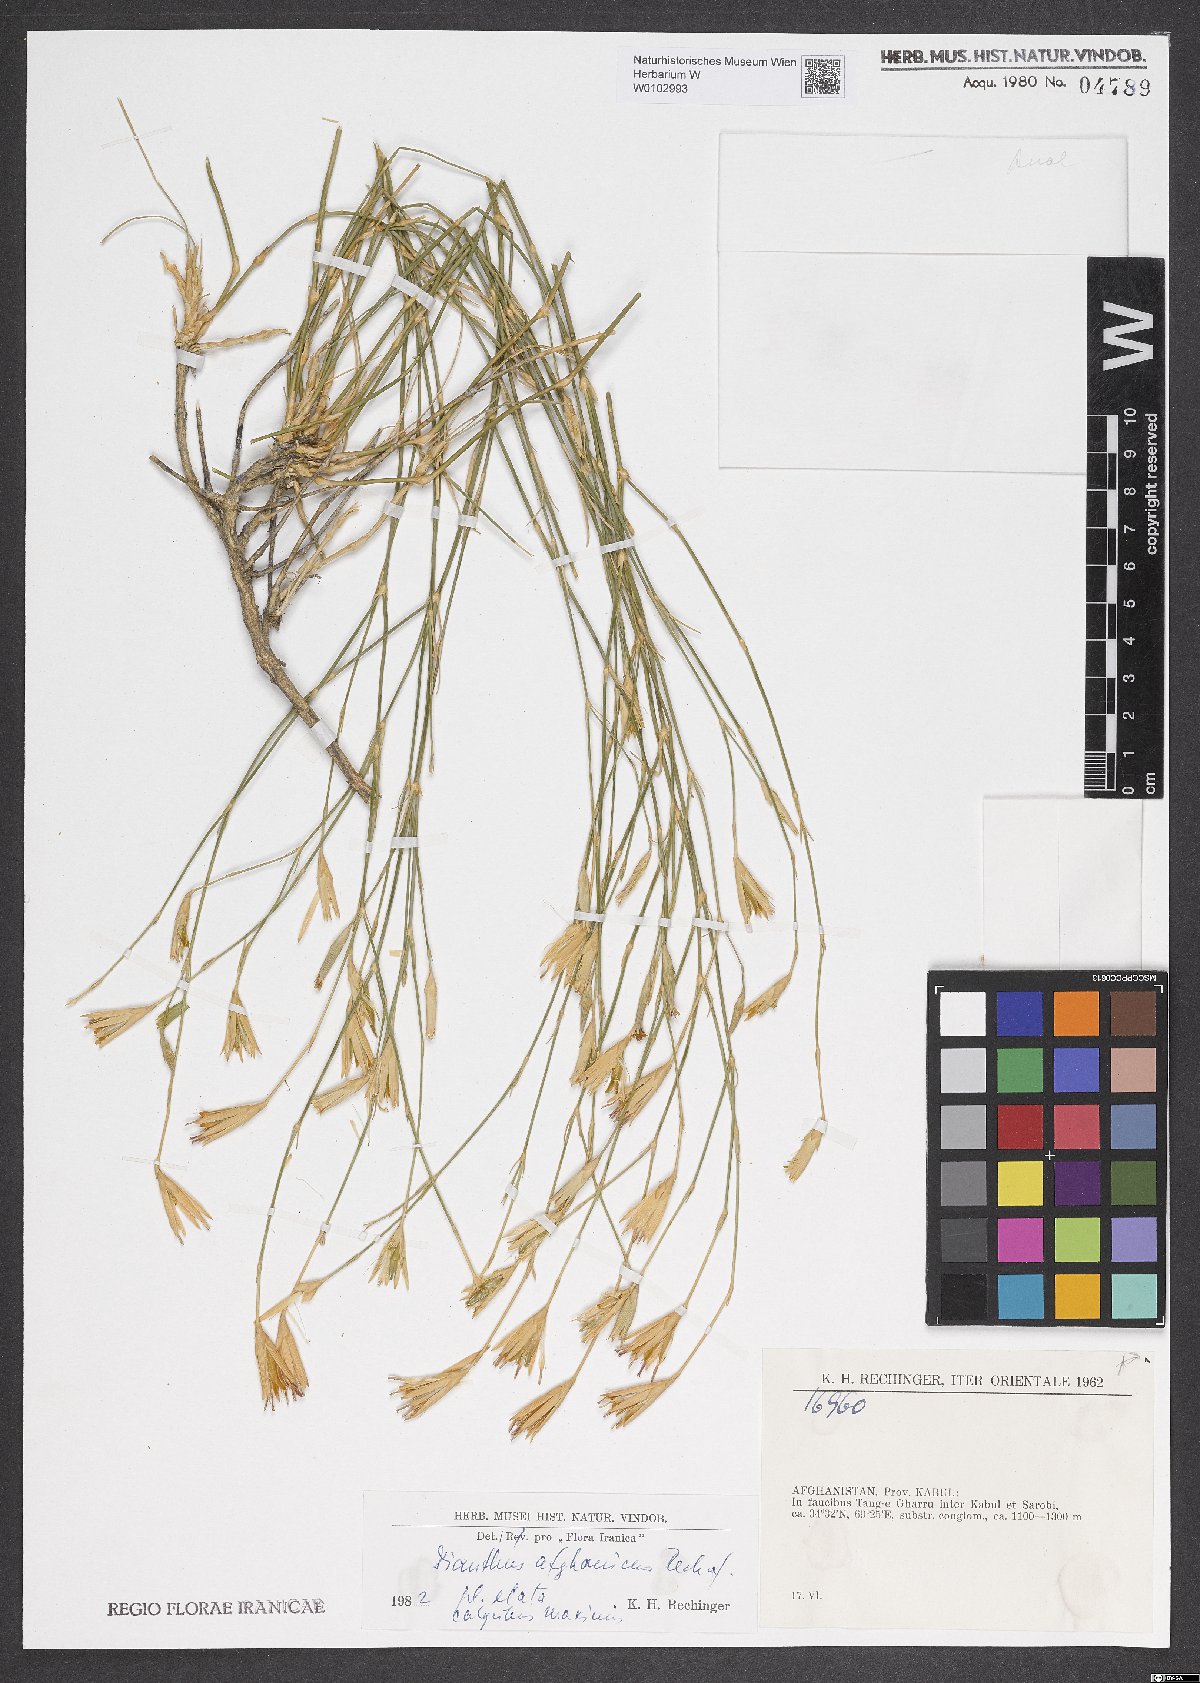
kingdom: Plantae
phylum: Tracheophyta
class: Magnoliopsida
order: Caryophyllales
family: Caryophyllaceae
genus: Dianthus
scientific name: Dianthus afghanicus
